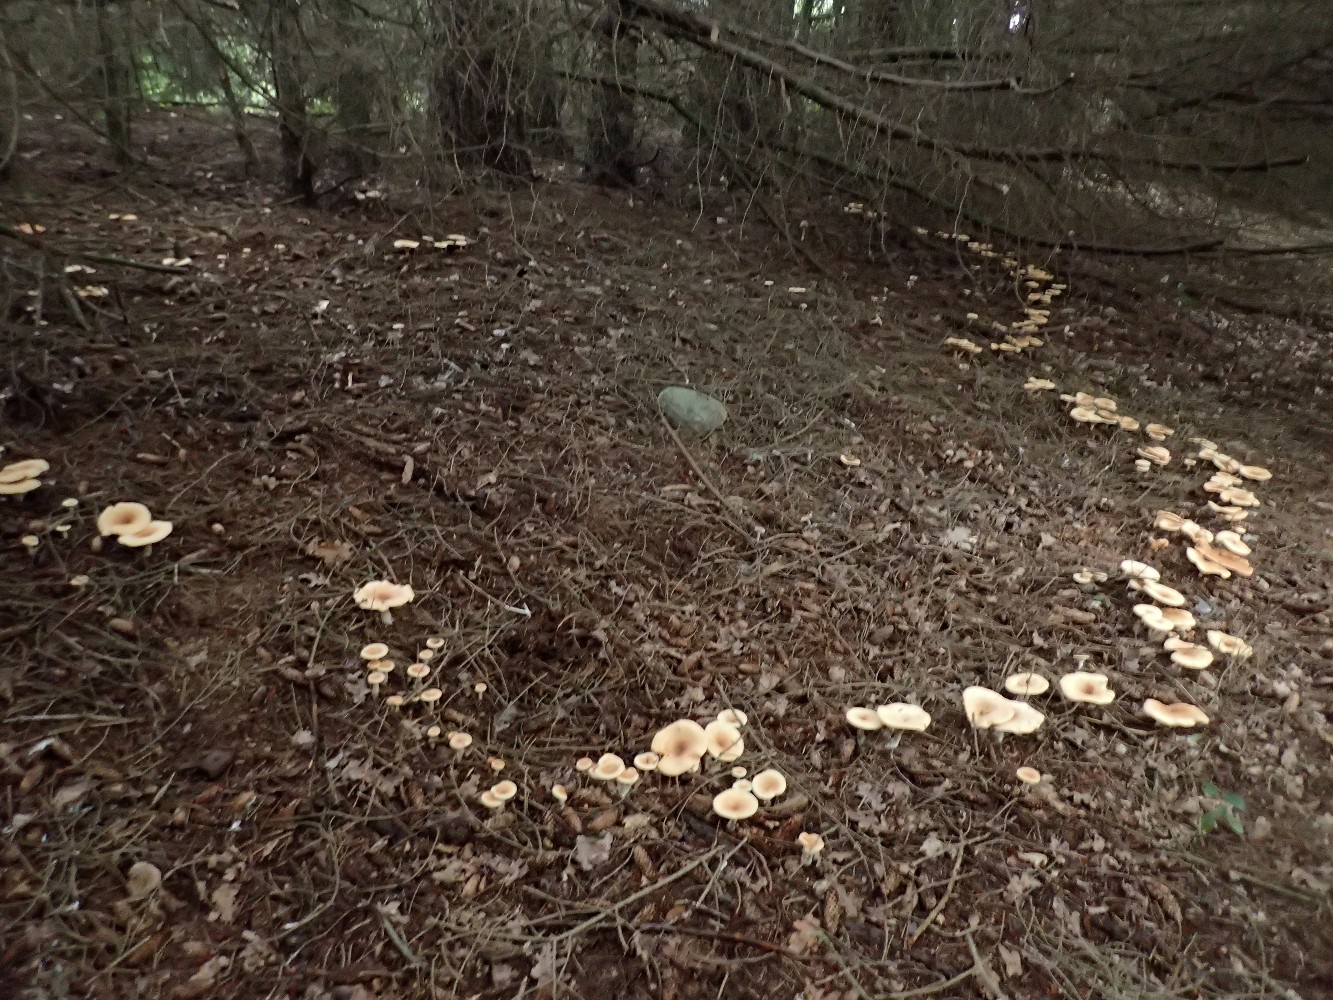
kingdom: Fungi
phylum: Basidiomycota
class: Agaricomycetes
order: Agaricales
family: Tricholomataceae
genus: Paralepista
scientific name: Paralepista flaccida
